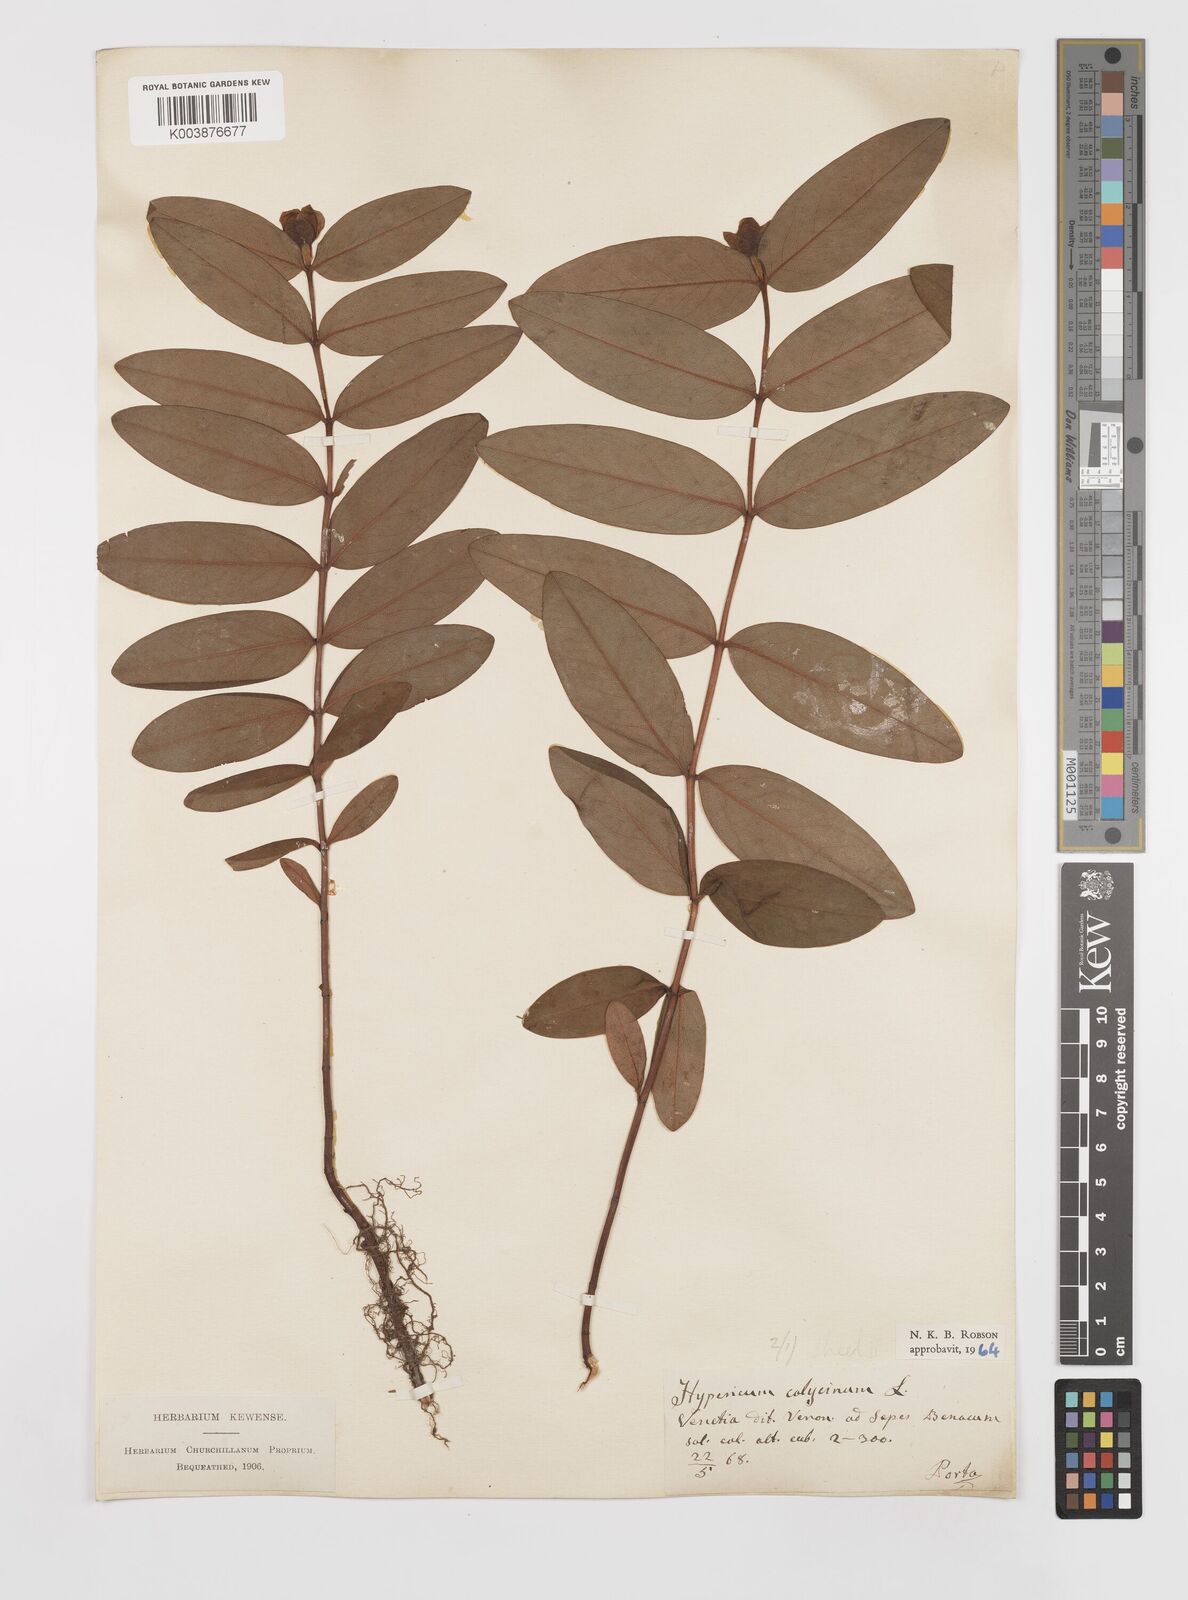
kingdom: Plantae
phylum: Tracheophyta
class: Magnoliopsida
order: Malpighiales
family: Hypericaceae
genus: Hypericum
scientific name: Hypericum calycinum
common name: Rose-of-sharon
